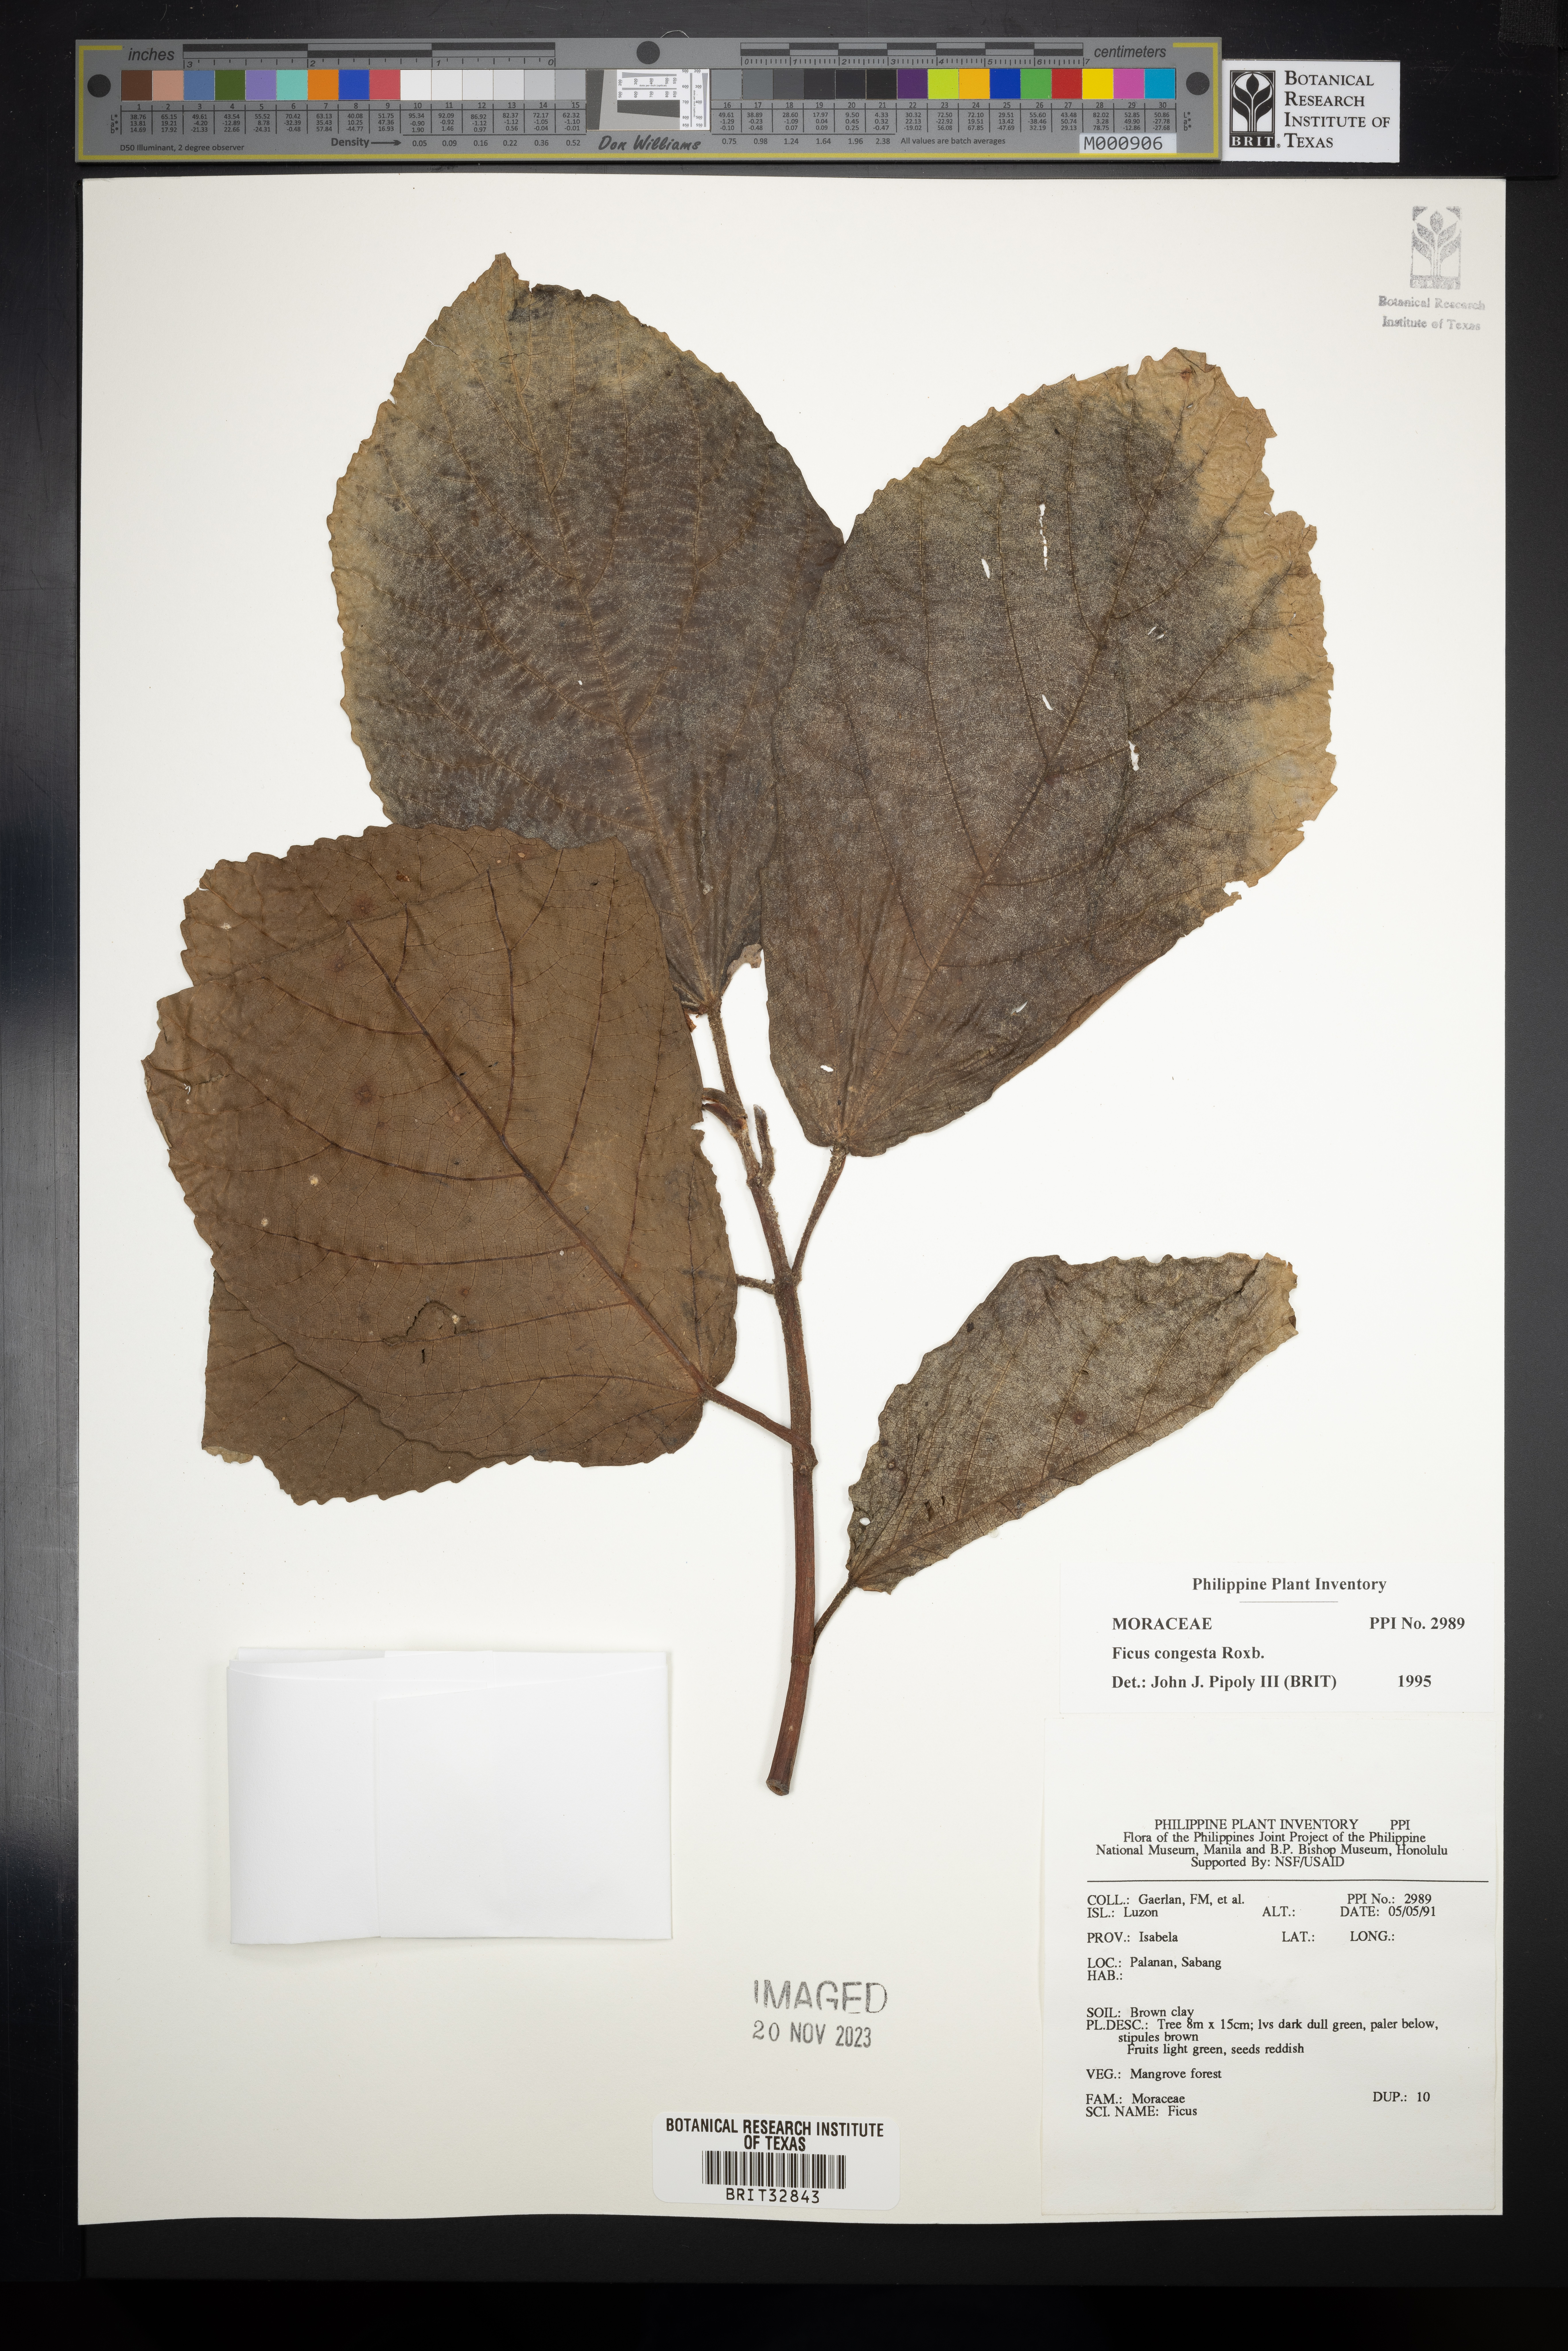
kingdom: Plantae
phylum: Tracheophyta
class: Magnoliopsida
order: Rosales
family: Moraceae
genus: Ficus
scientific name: Ficus congesta
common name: Cluster fig
